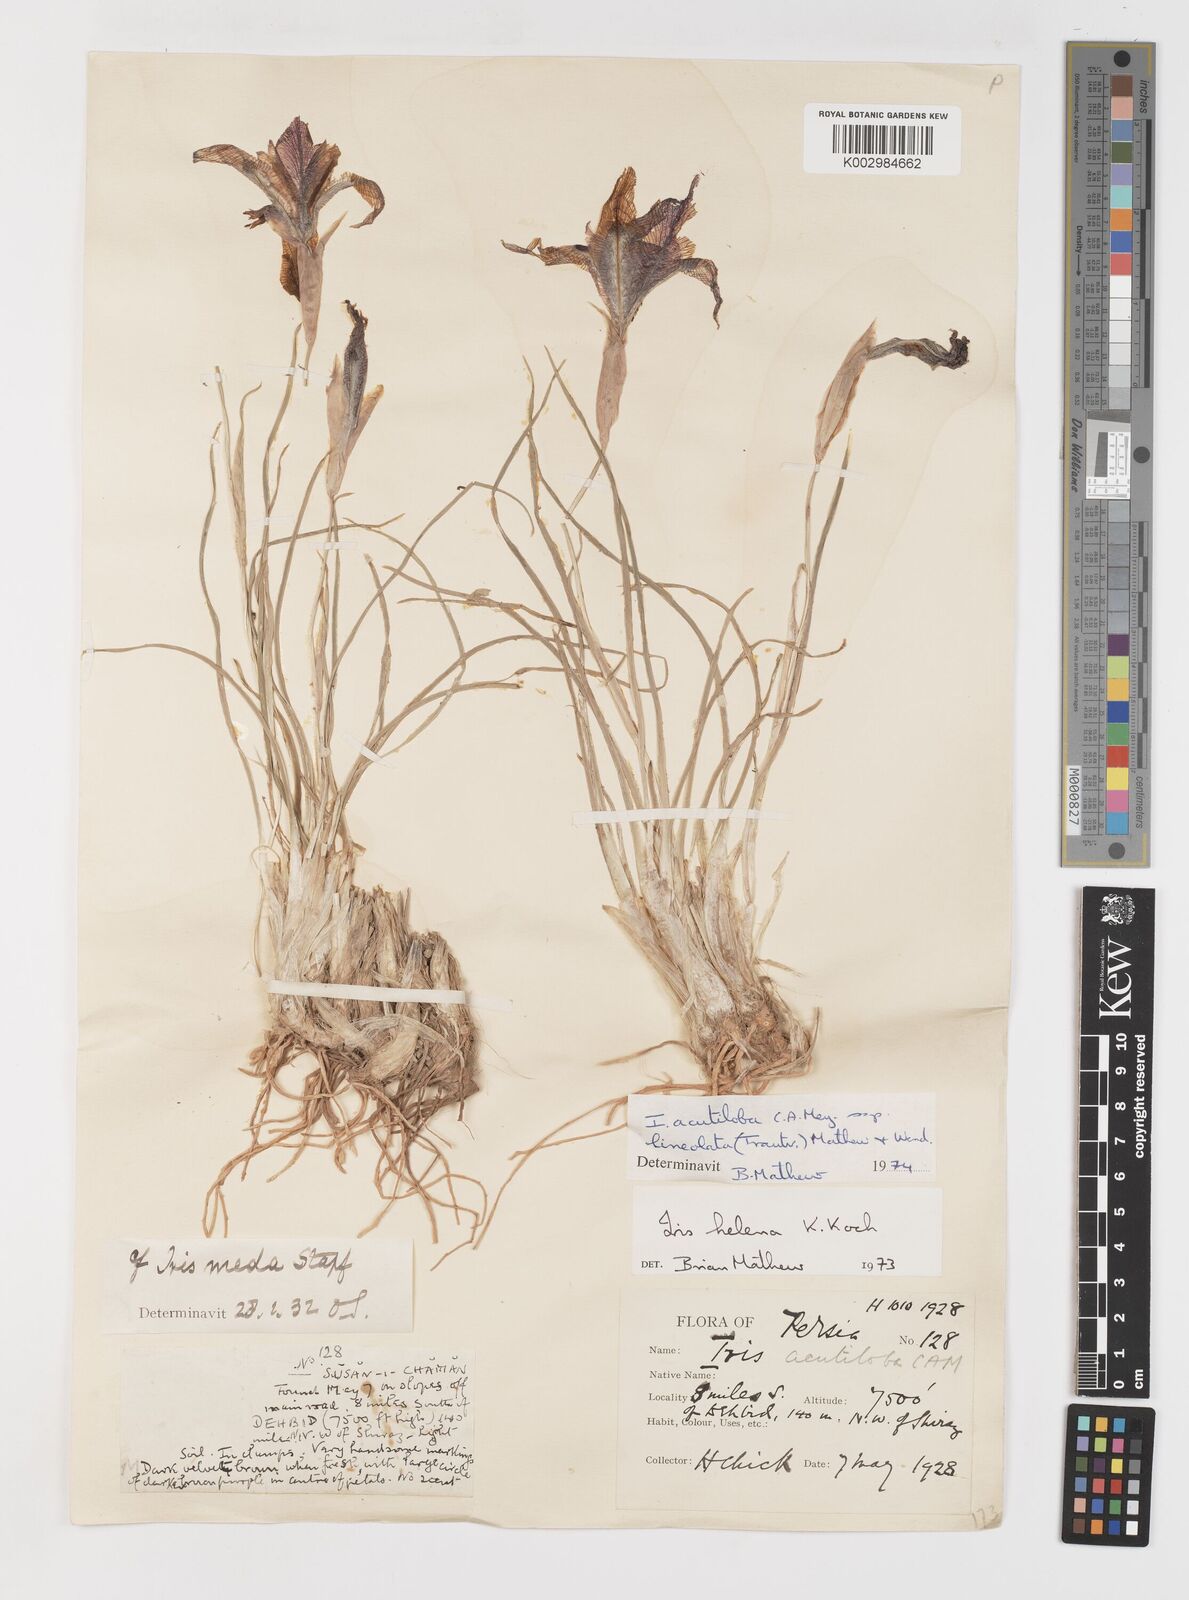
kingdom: Plantae
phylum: Tracheophyta
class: Liliopsida
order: Asparagales
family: Iridaceae
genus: Iris
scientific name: Iris acutiloba
